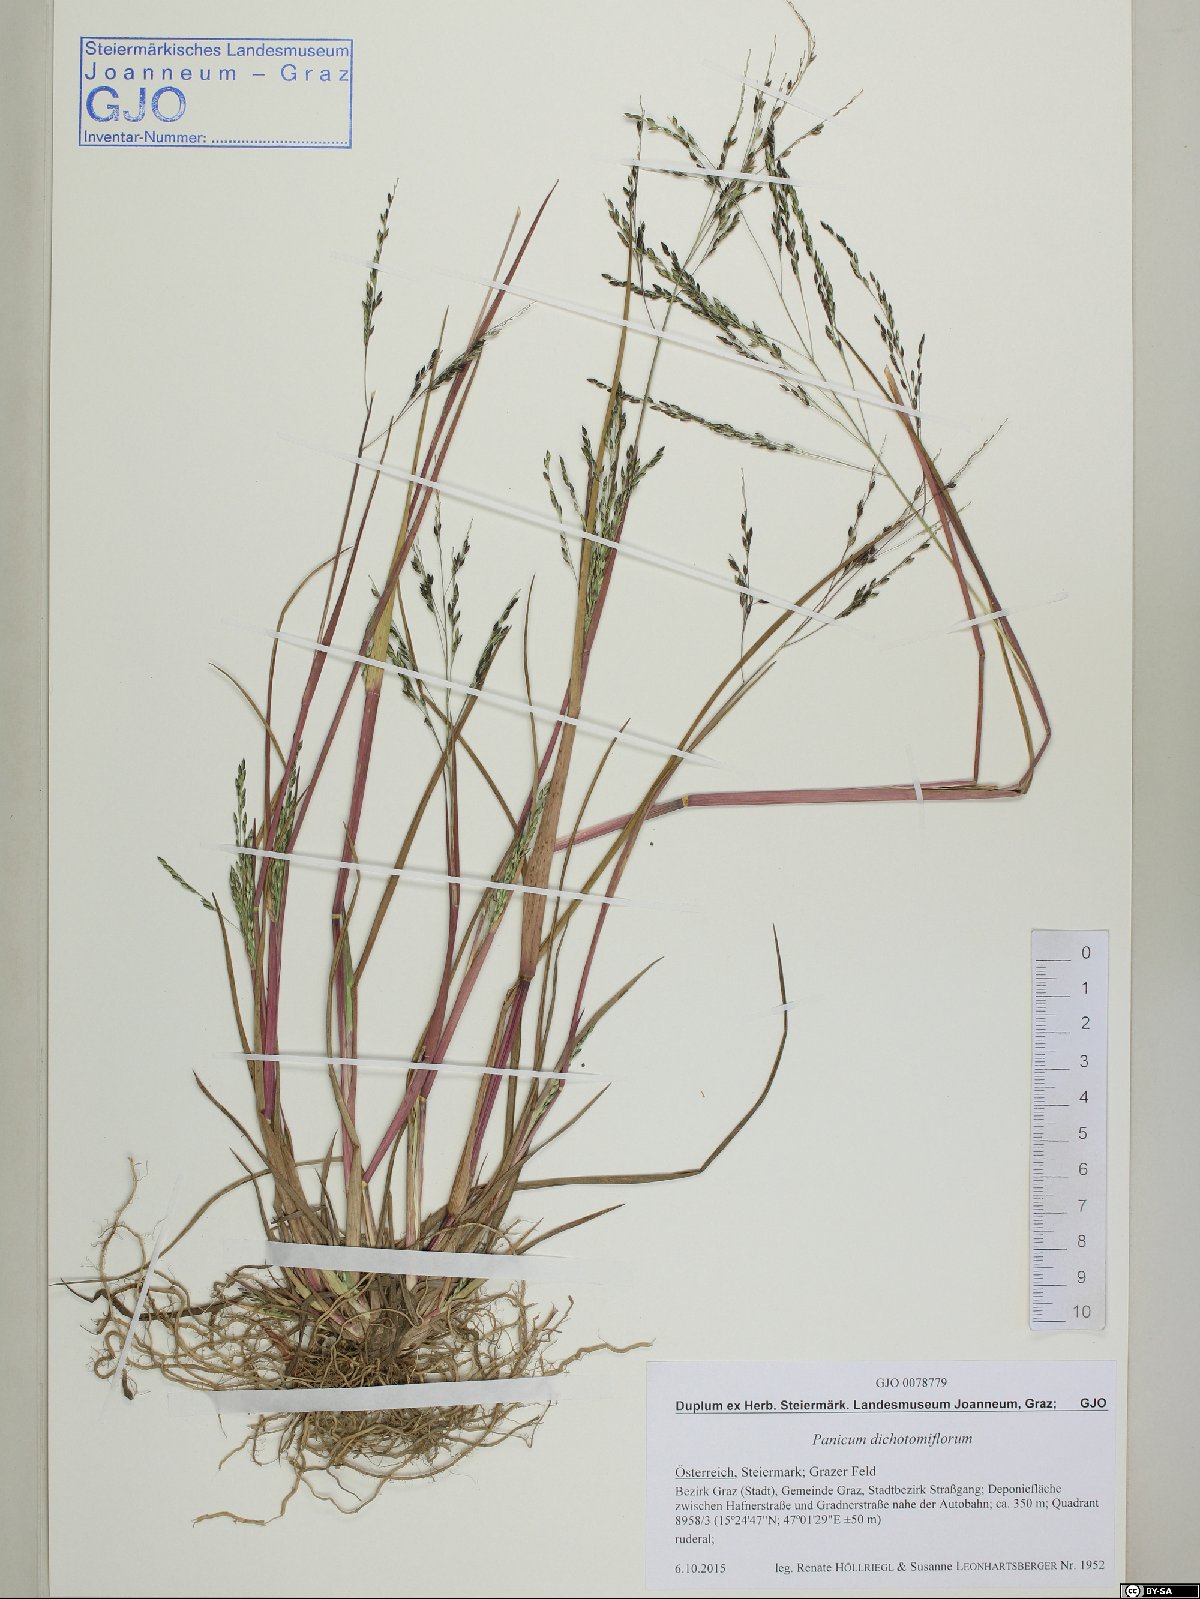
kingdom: Plantae
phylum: Tracheophyta
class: Liliopsida
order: Poales
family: Poaceae
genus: Panicum
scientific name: Panicum dichotomiflorum
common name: Autumn millet
